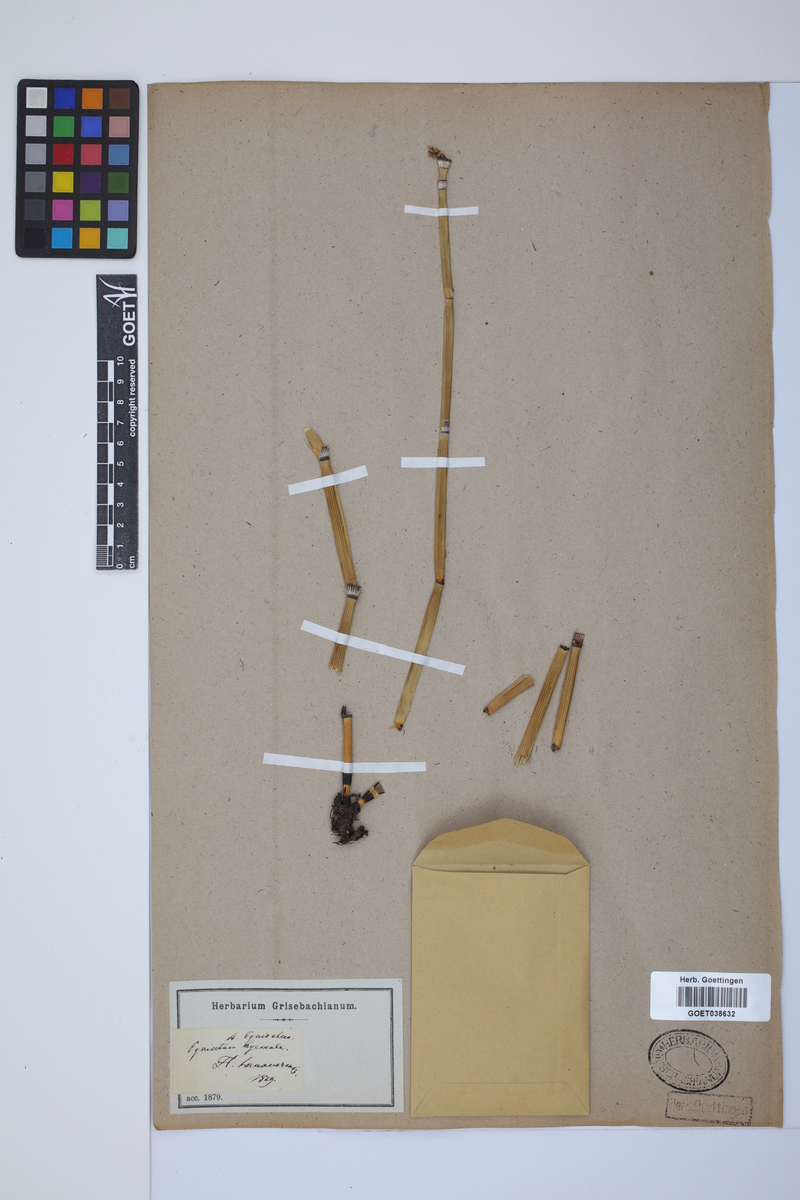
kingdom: Plantae
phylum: Tracheophyta
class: Polypodiopsida
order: Equisetales
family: Equisetaceae
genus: Equisetum
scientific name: Equisetum hyemale
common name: Rough horsetail
